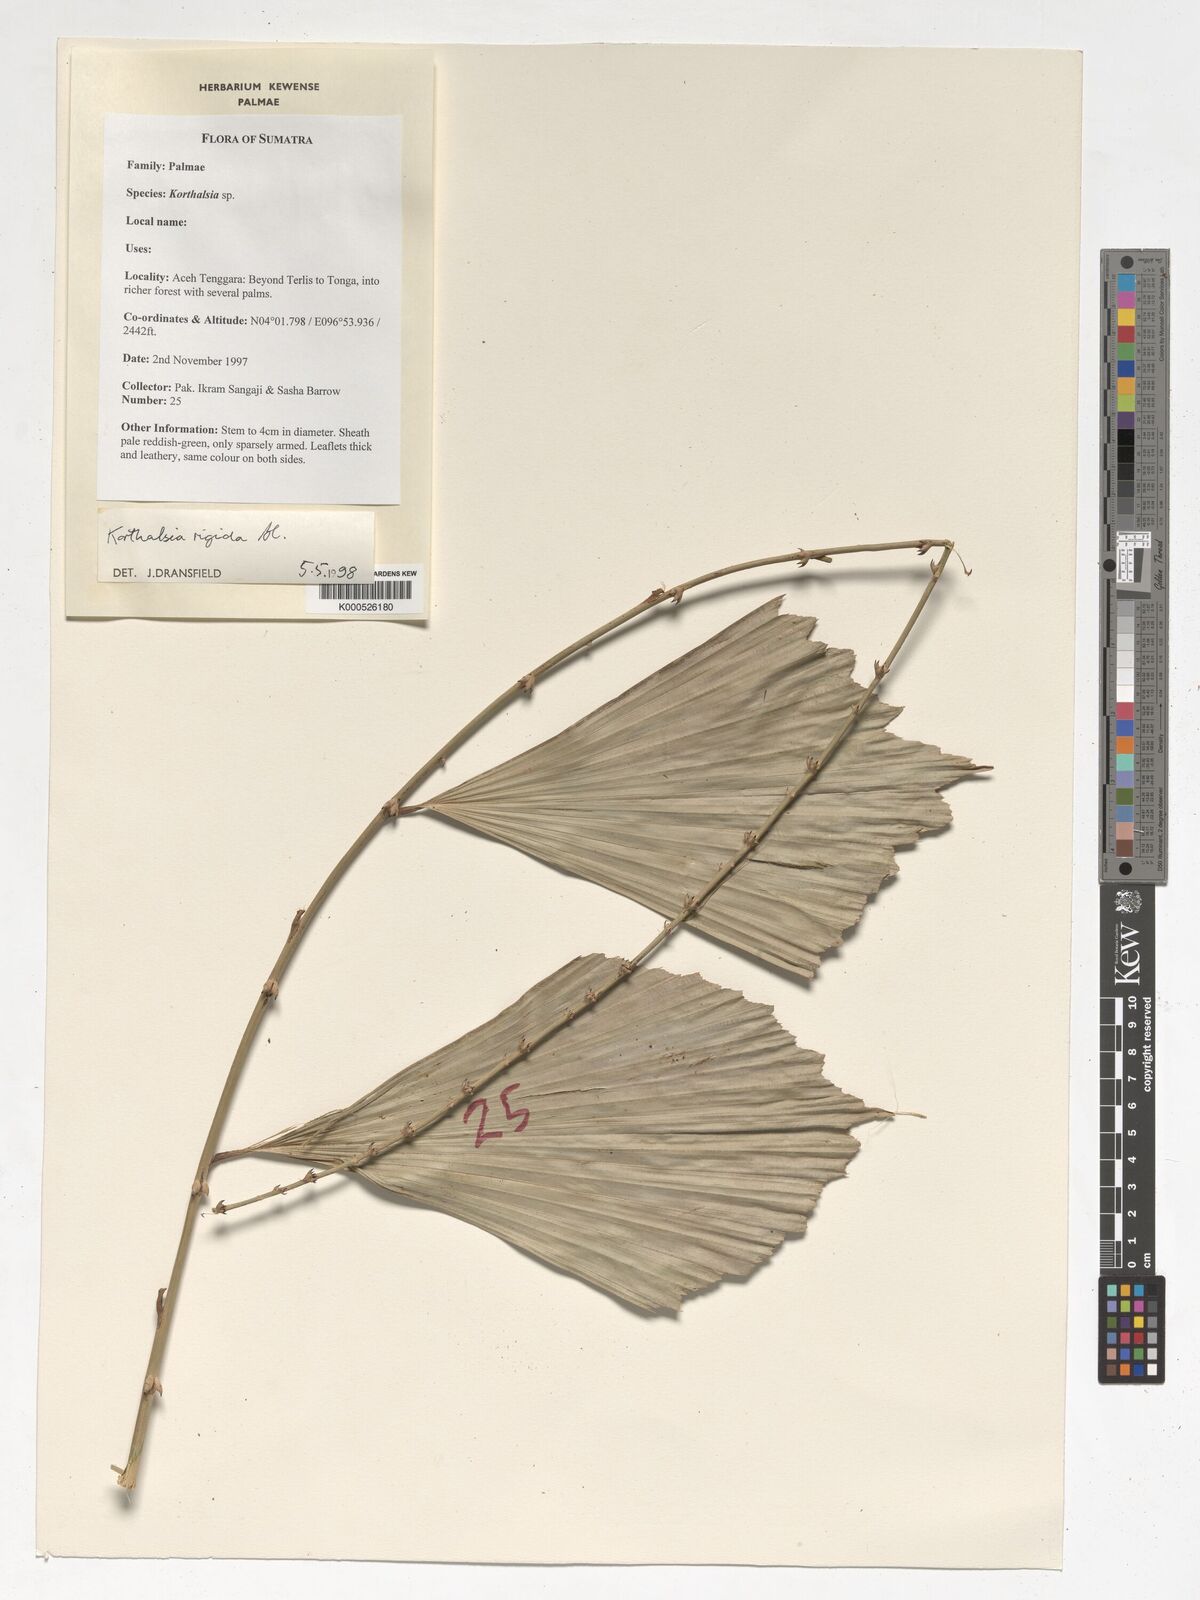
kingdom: Plantae
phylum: Tracheophyta
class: Liliopsida
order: Arecales
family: Arecaceae
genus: Korthalsia
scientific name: Korthalsia rigida
